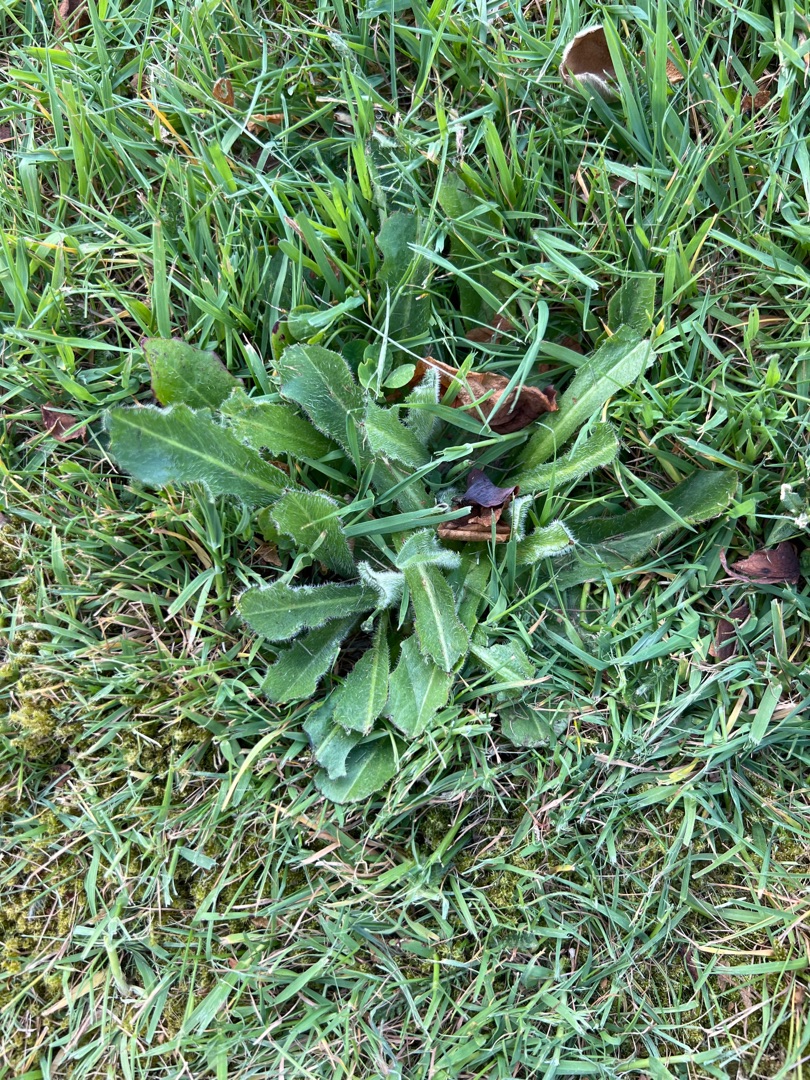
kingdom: Plantae
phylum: Tracheophyta
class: Magnoliopsida
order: Asterales
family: Asteraceae
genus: Hypochaeris
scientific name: Hypochaeris radicata
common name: Almindelig kongepen
